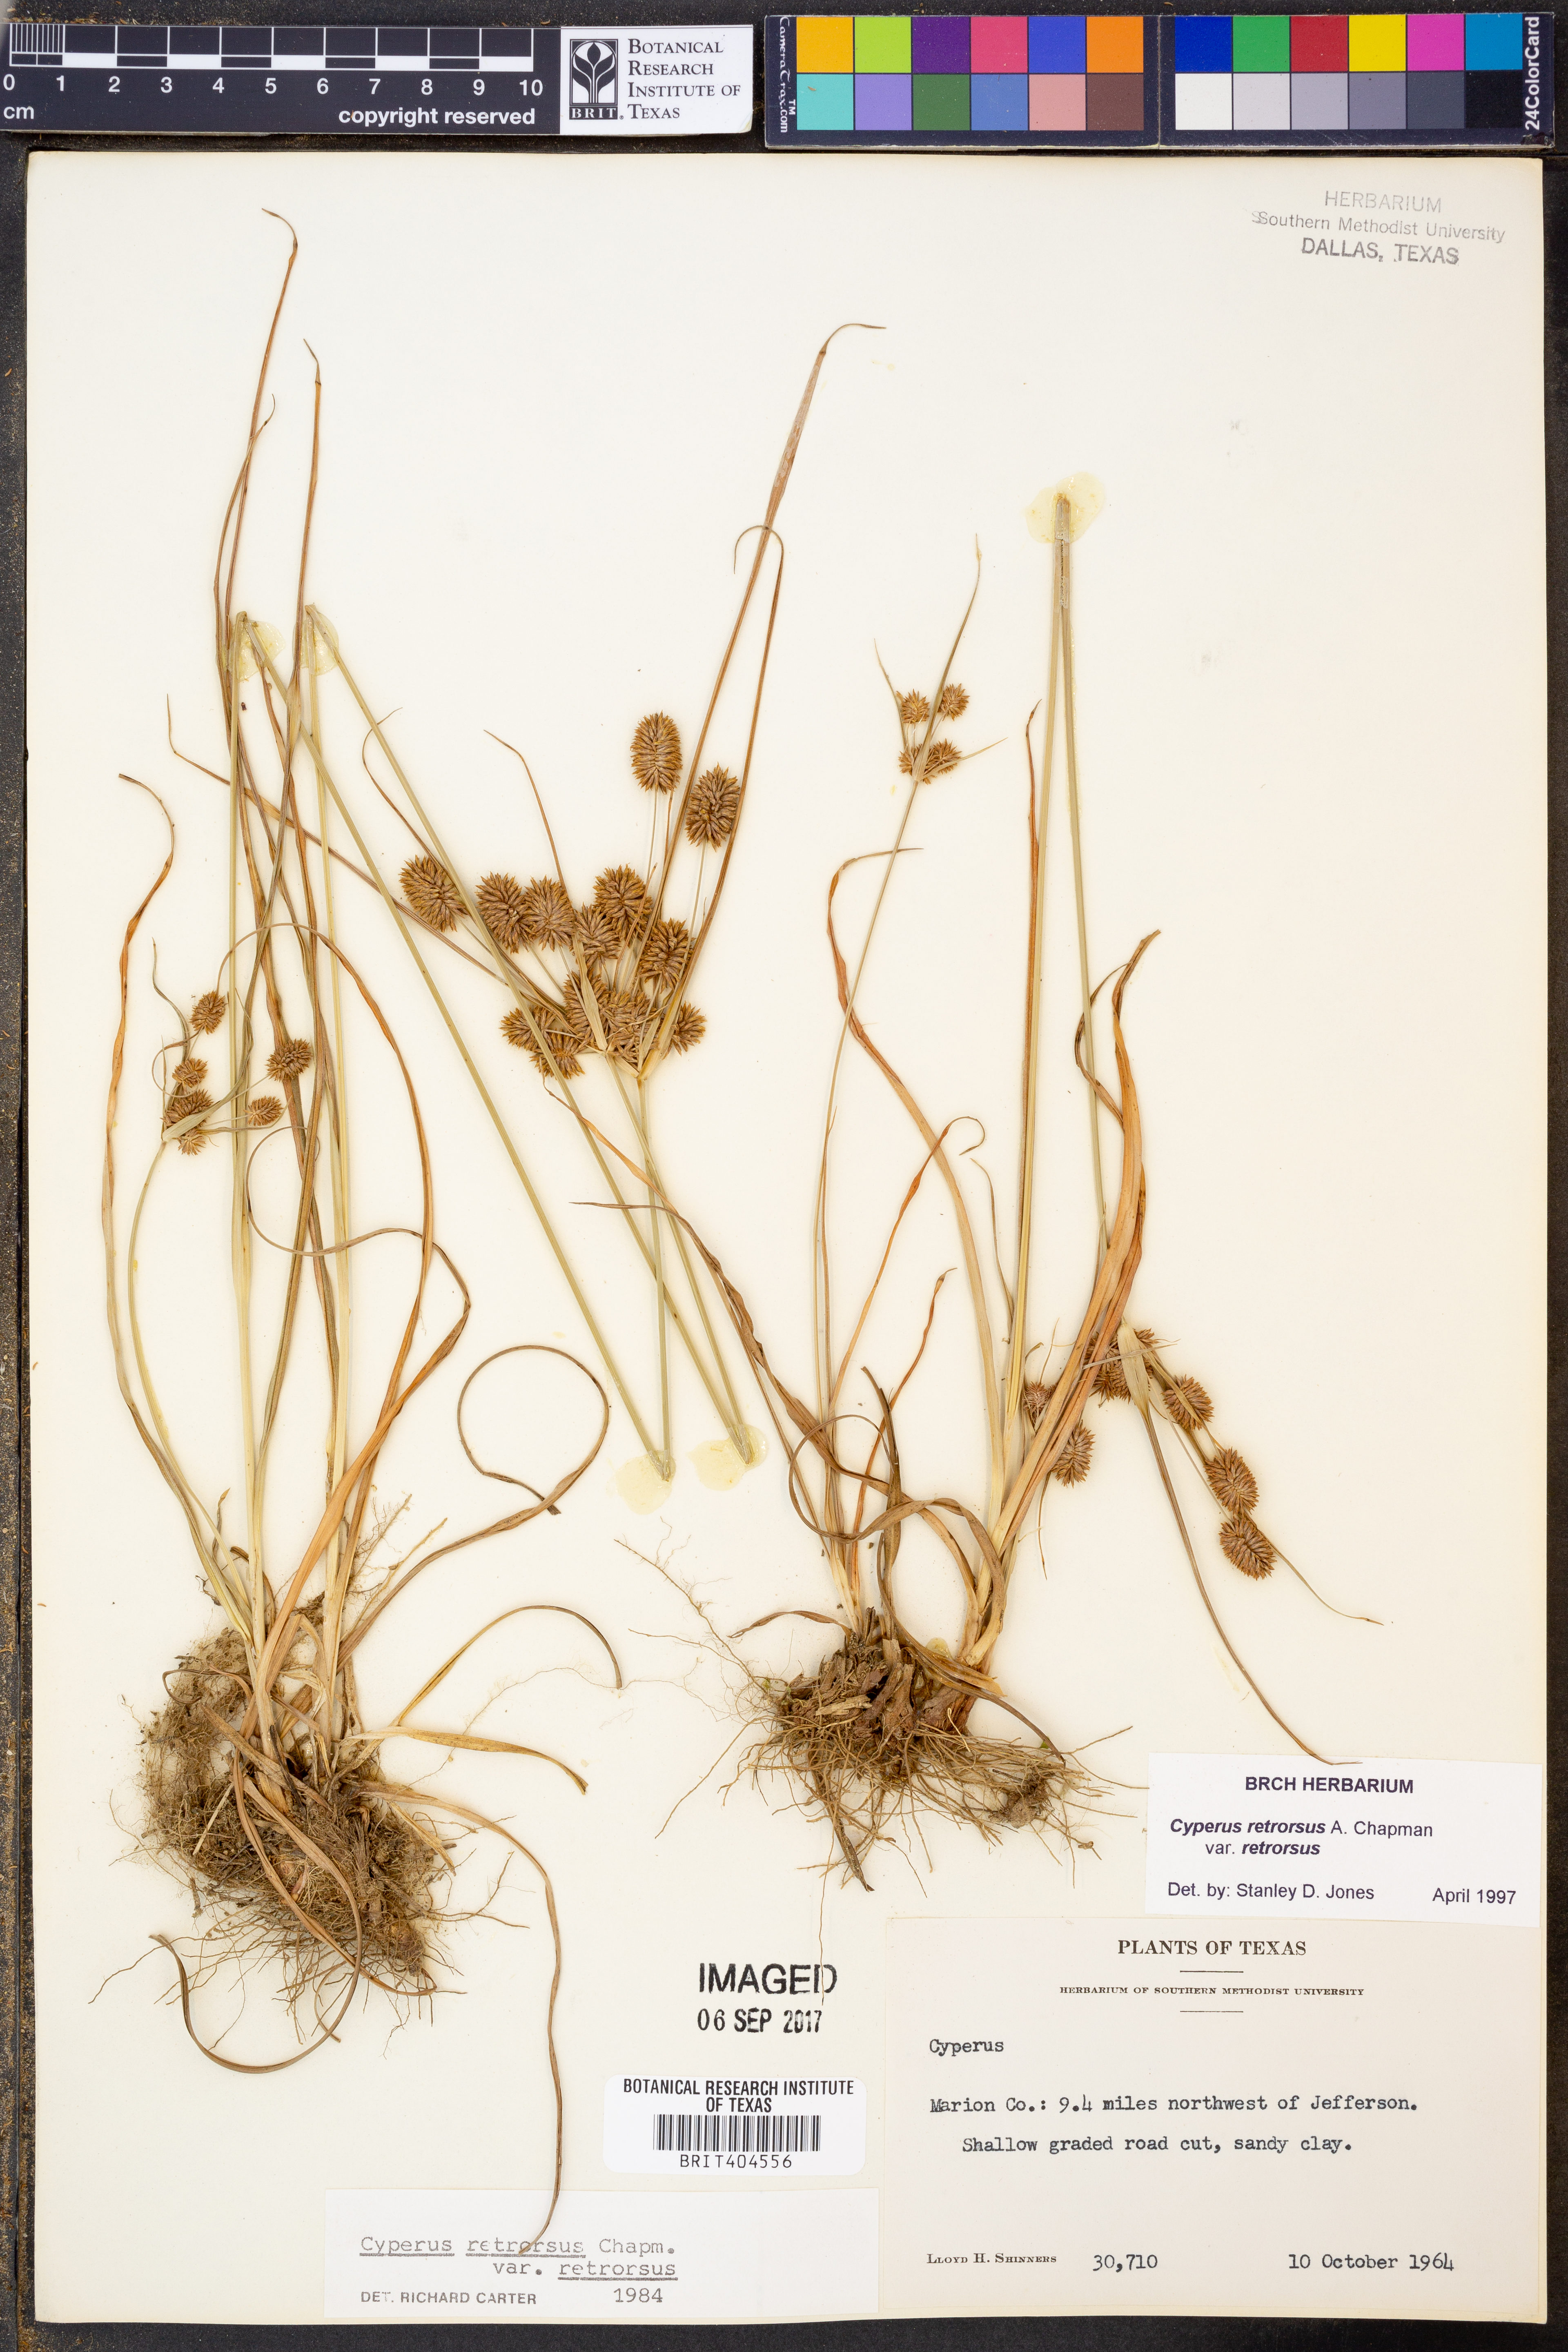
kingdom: Plantae
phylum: Tracheophyta
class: Liliopsida
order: Poales
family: Cyperaceae
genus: Cyperus
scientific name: Cyperus retrorsus
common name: Pinebarren flat sedge
